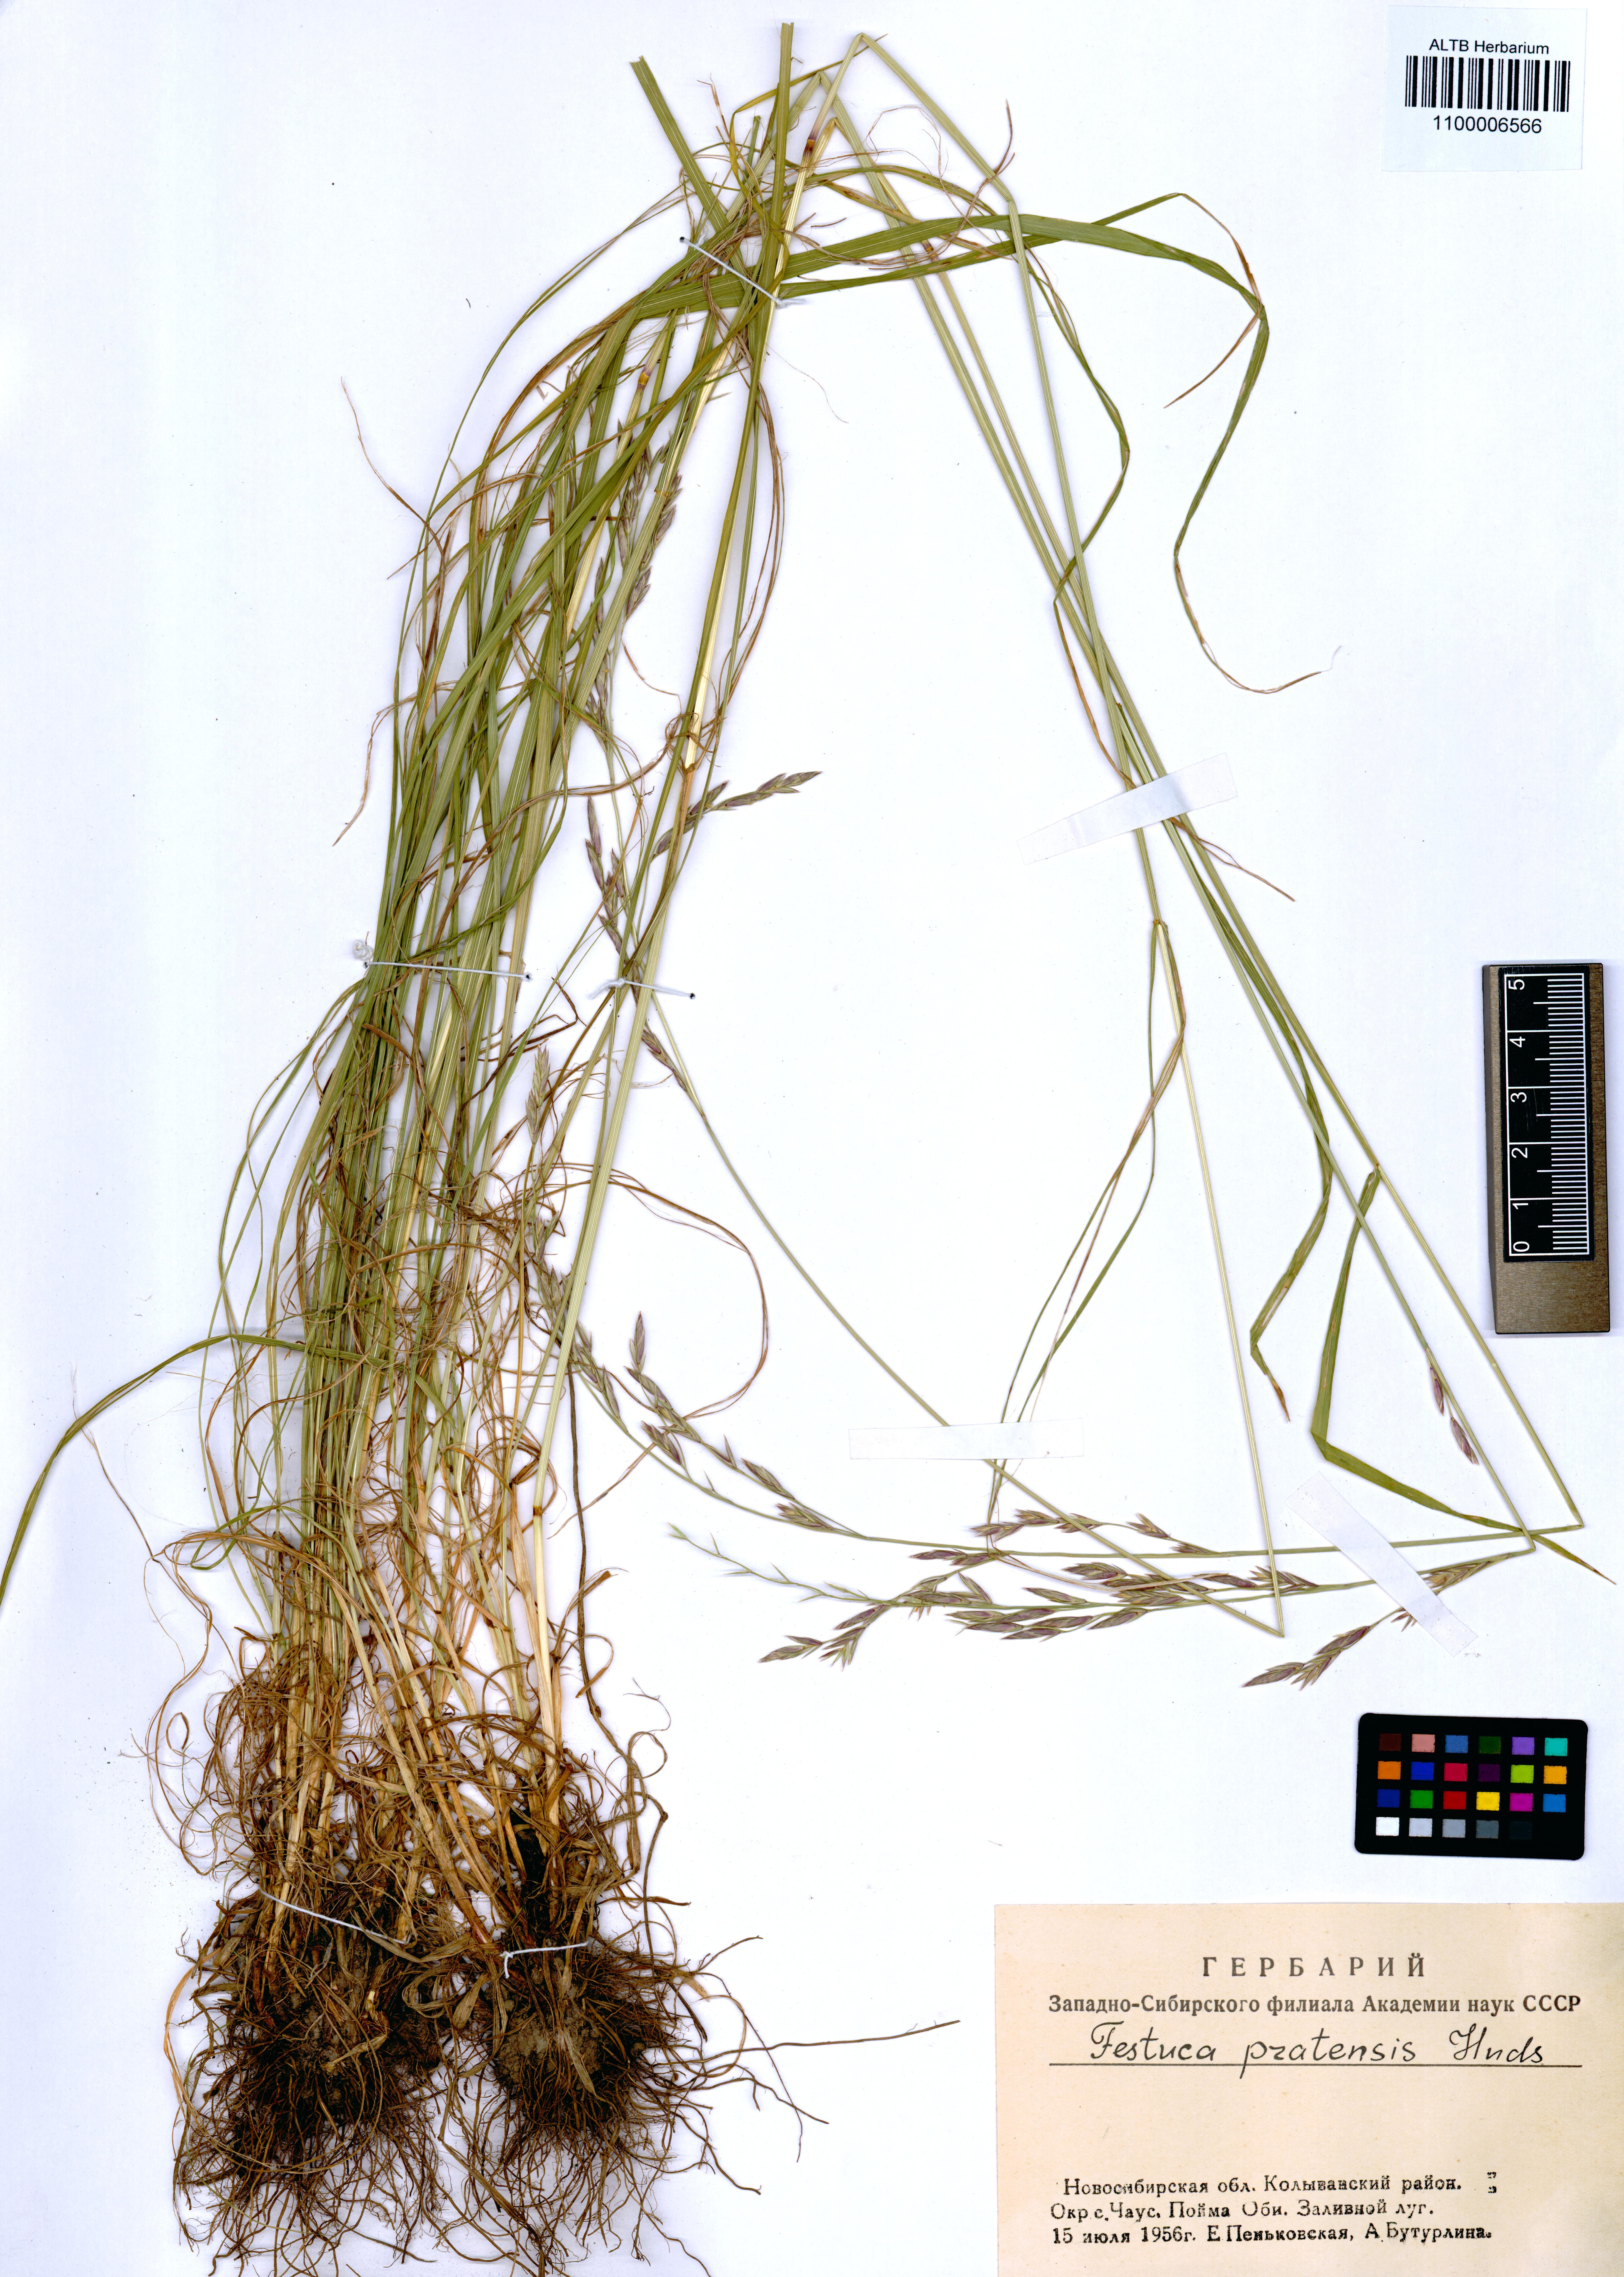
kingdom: Plantae
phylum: Tracheophyta
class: Liliopsida
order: Poales
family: Poaceae
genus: Lolium
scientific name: Lolium pratense
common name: Dover grass
